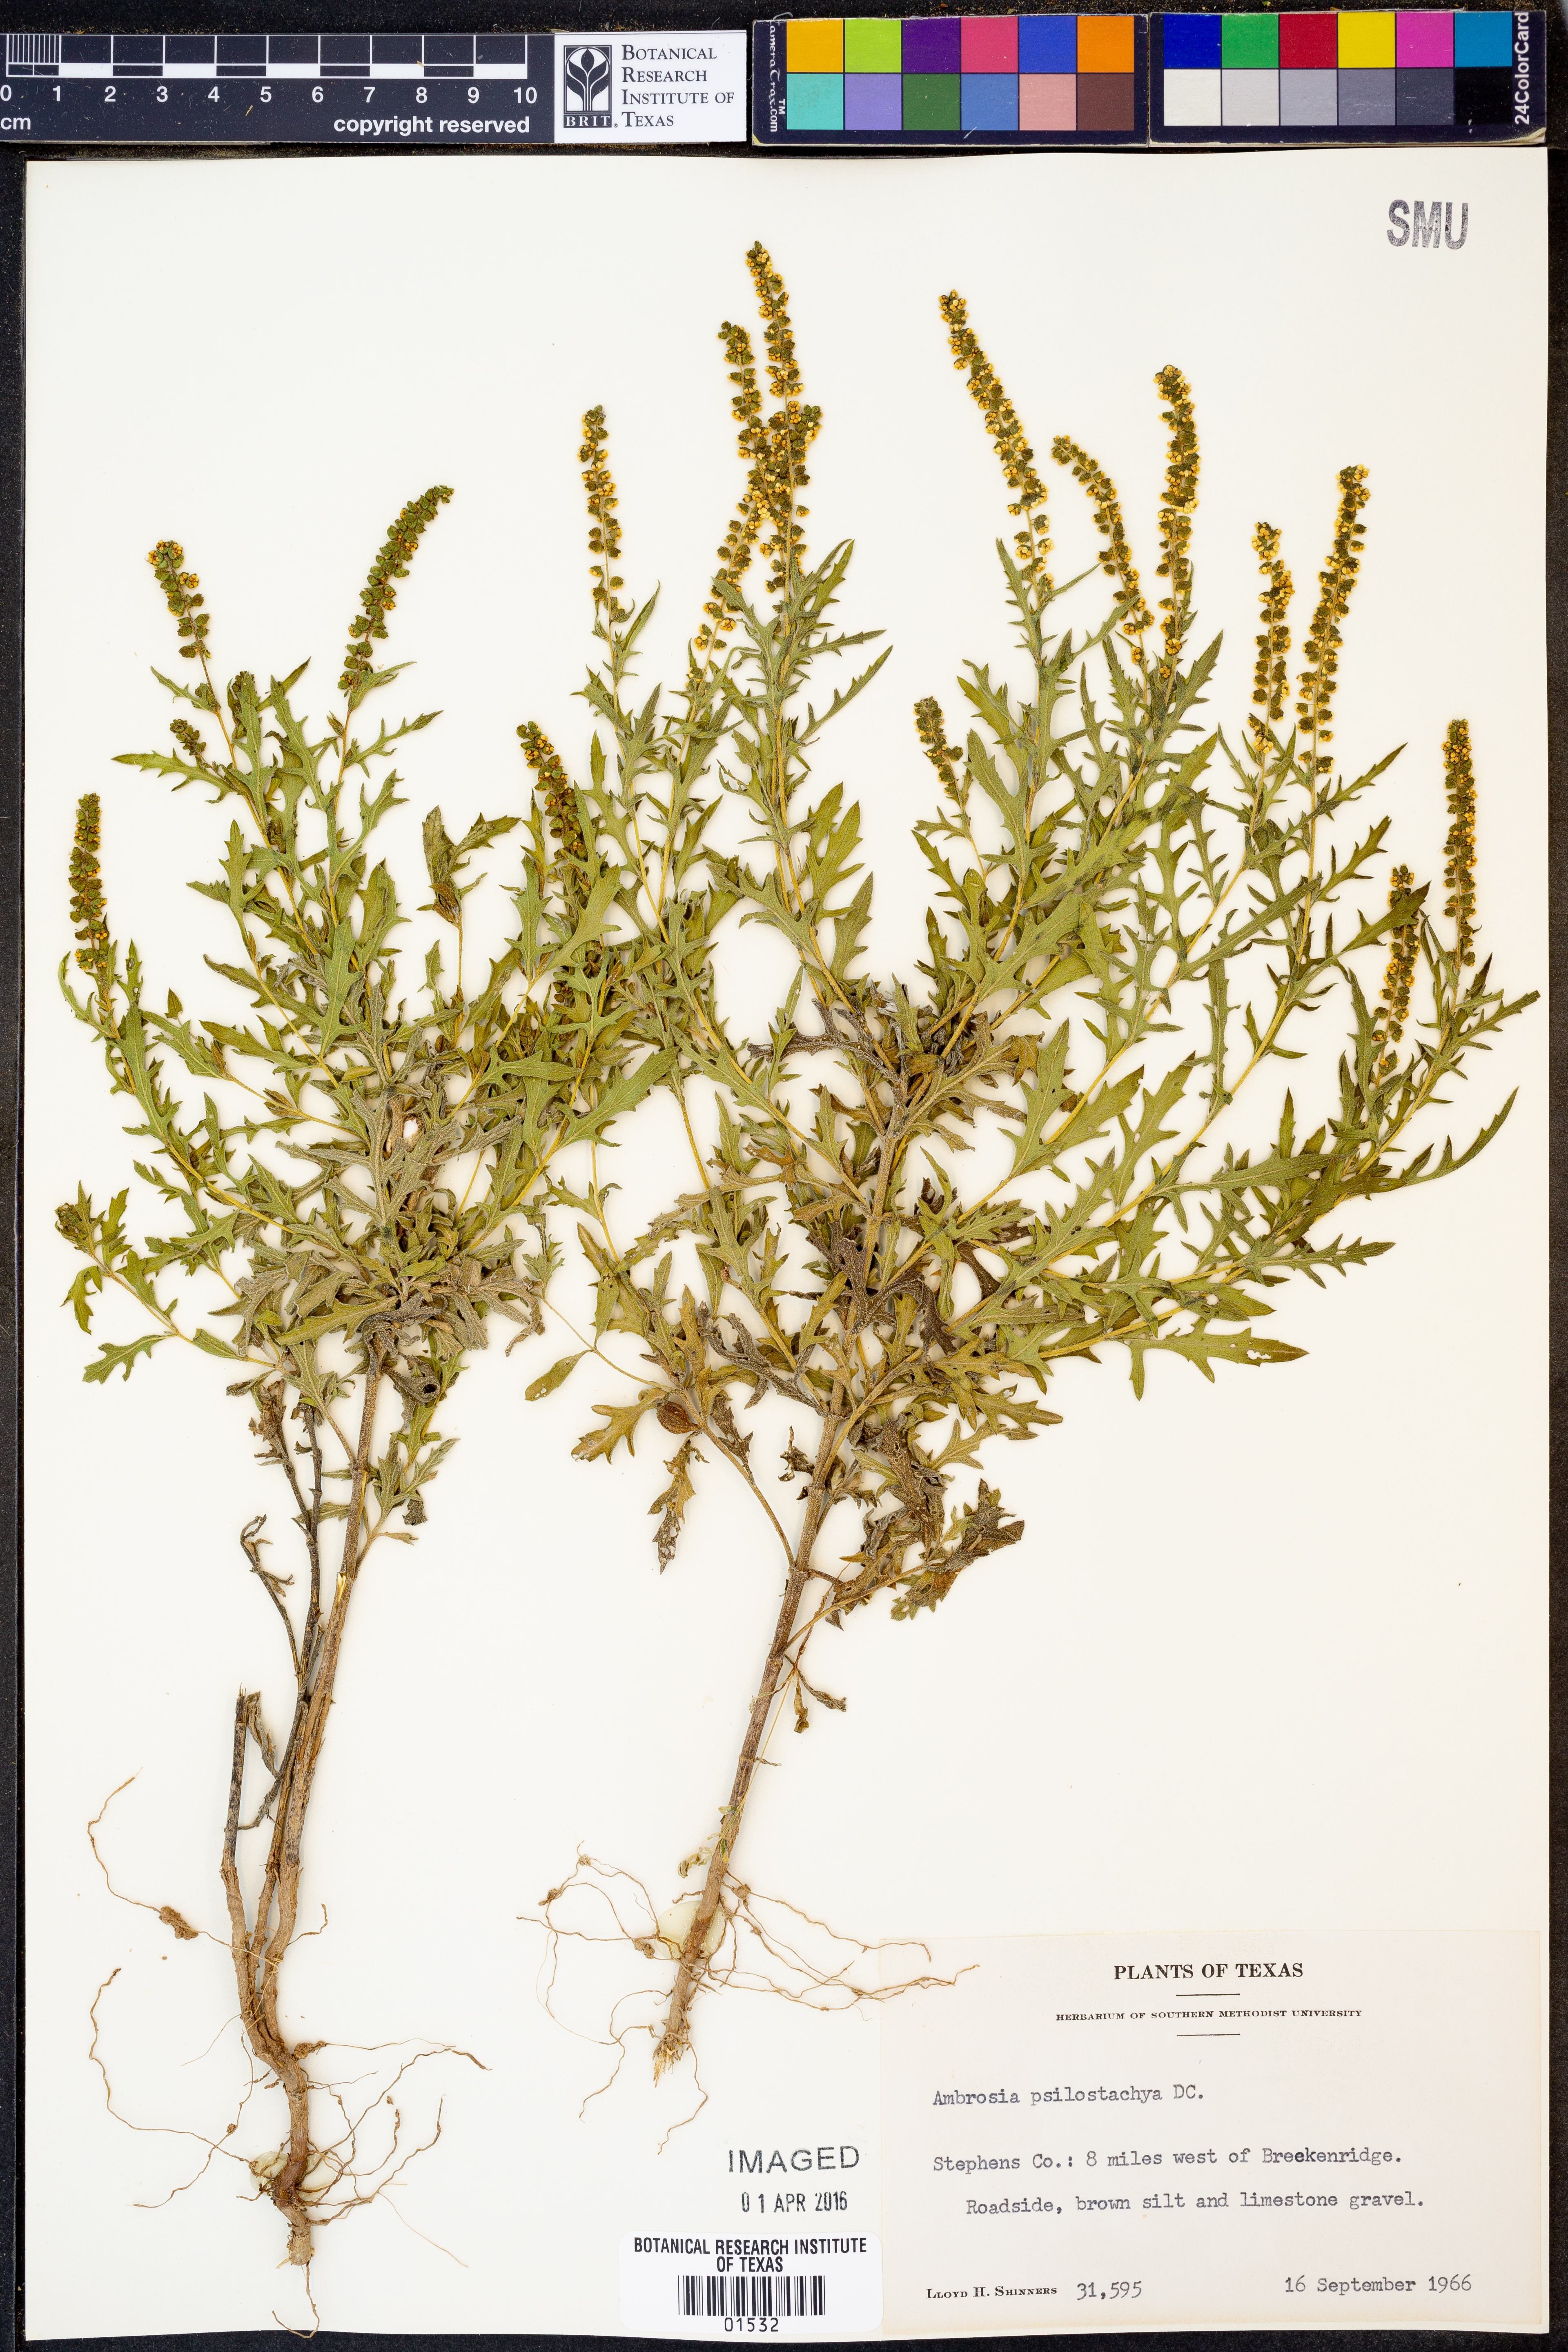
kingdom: Plantae
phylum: Tracheophyta
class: Magnoliopsida
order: Asterales
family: Asteraceae
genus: Ambrosia
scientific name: Ambrosia psilostachya
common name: Perennial ragweed
